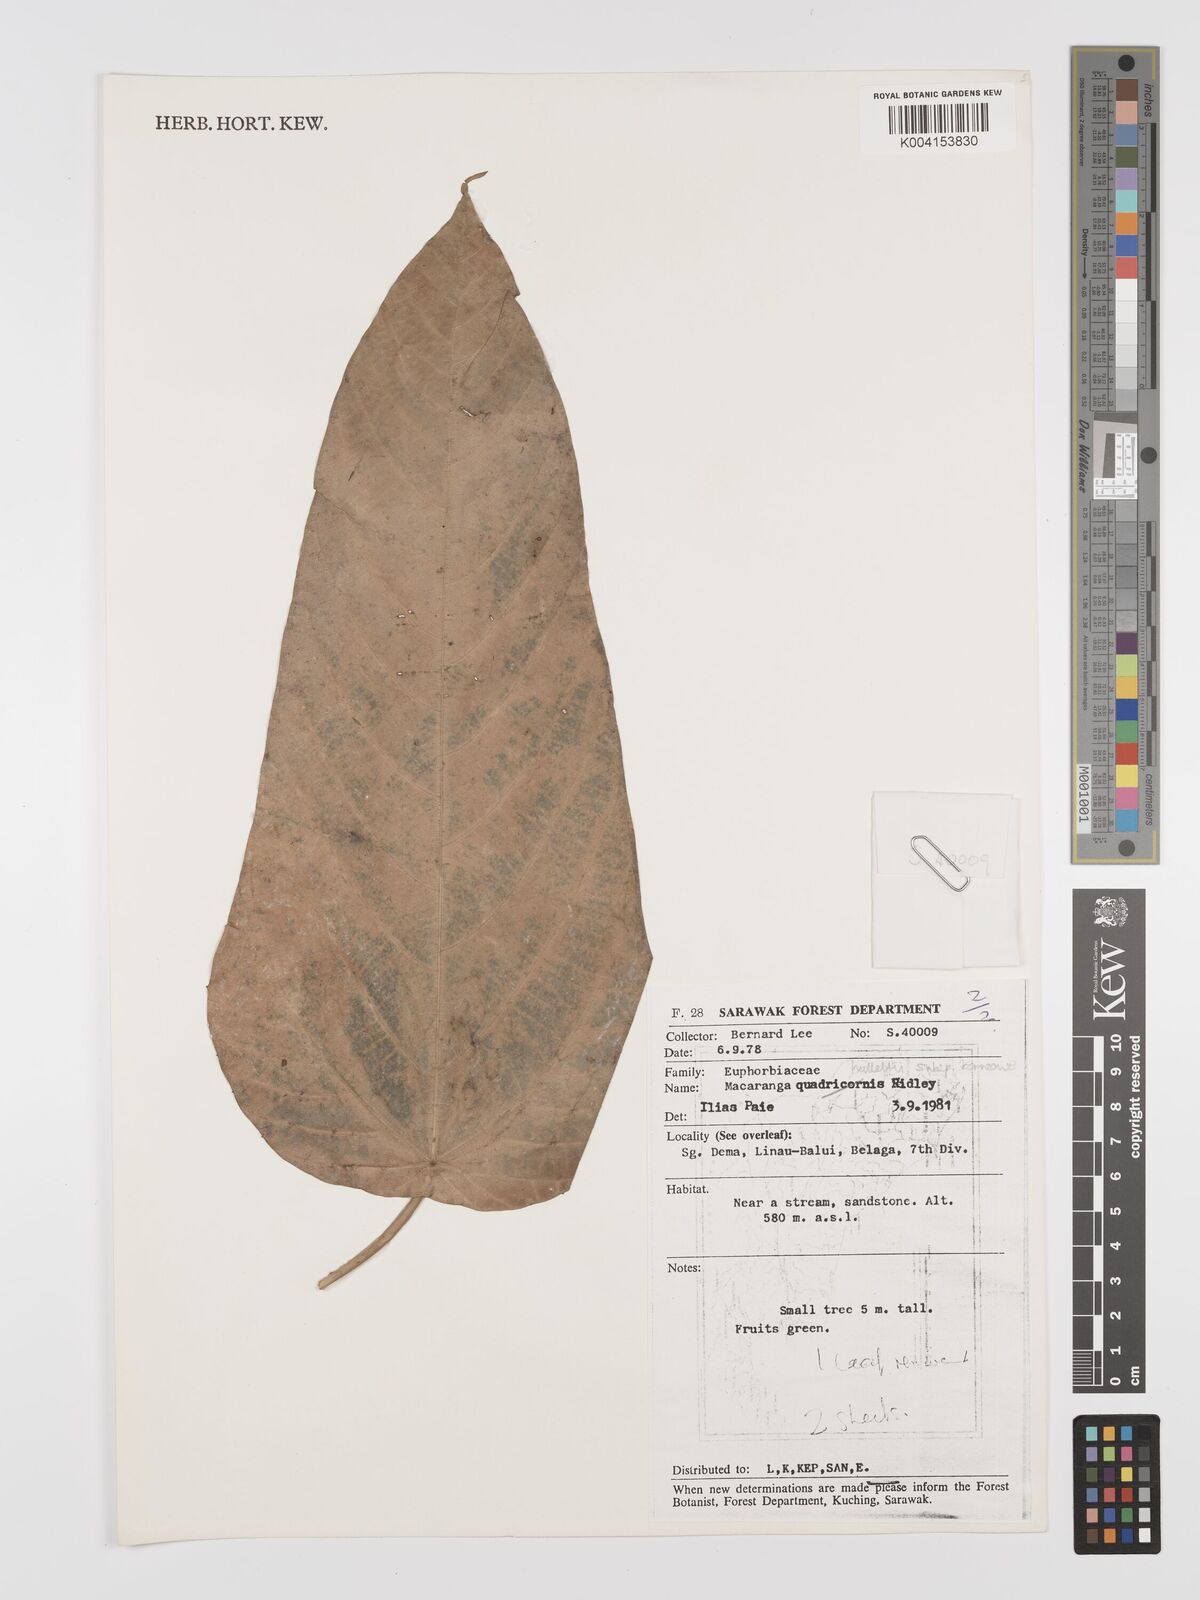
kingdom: Plantae
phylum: Tracheophyta
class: Magnoliopsida
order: Malpighiales
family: Euphorbiaceae
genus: Macaranga
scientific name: Macaranga hullettii
